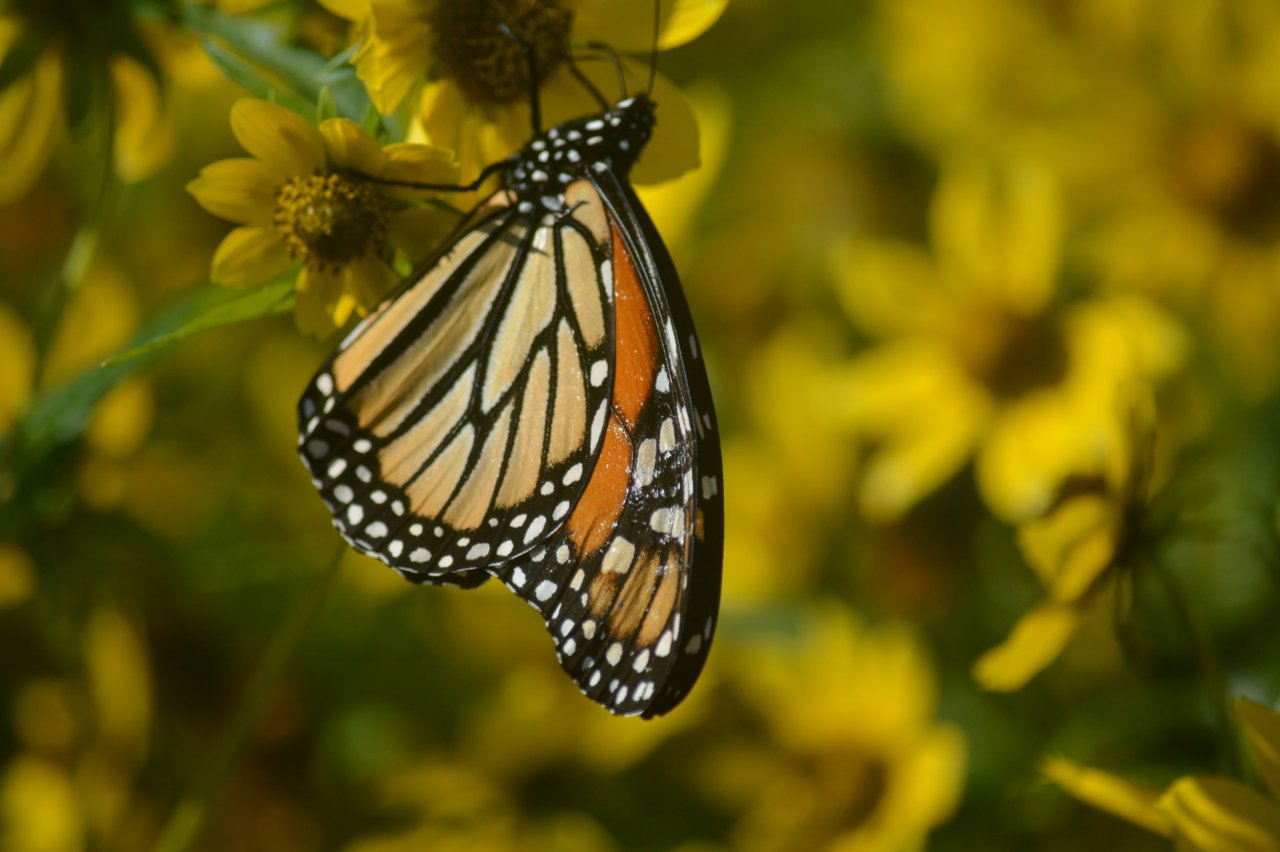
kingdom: Animalia
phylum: Arthropoda
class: Insecta
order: Lepidoptera
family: Nymphalidae
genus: Danaus
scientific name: Danaus plexippus
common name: Monarch
